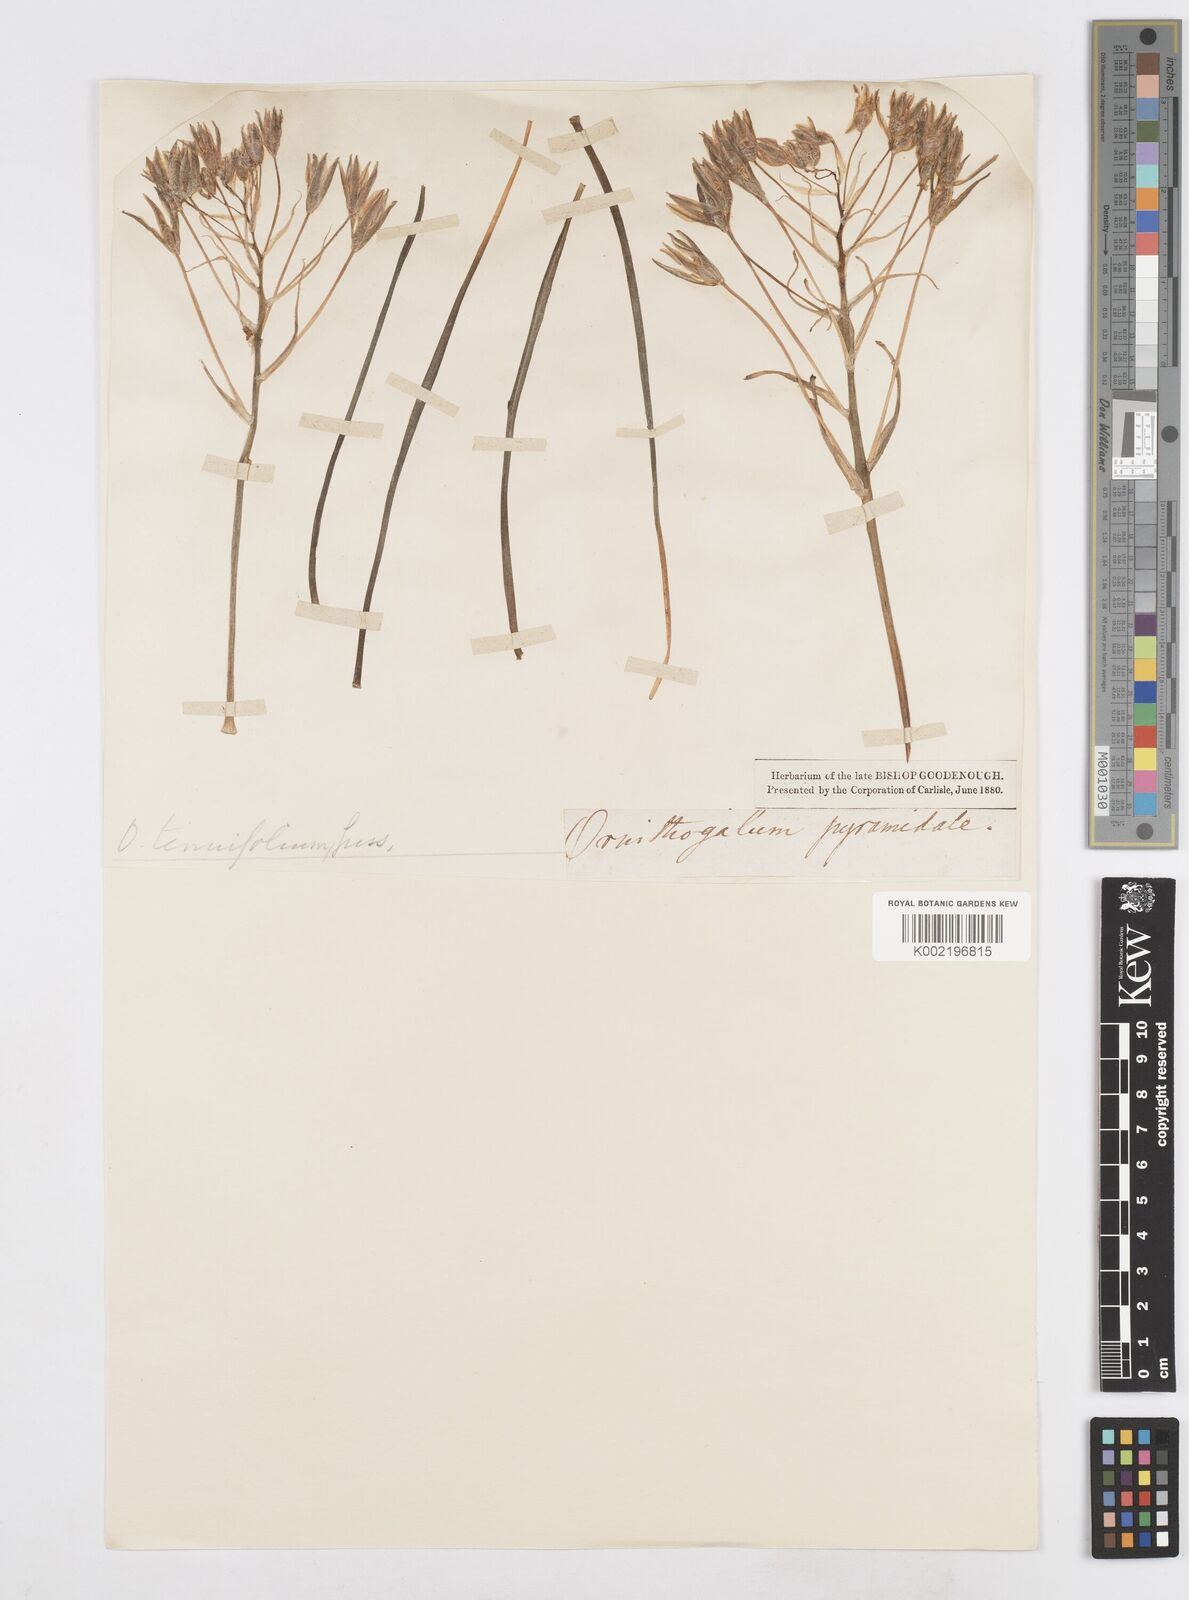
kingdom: Plantae
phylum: Tracheophyta
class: Liliopsida
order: Asparagales
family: Asparagaceae
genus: Albuca
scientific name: Albuca virens
